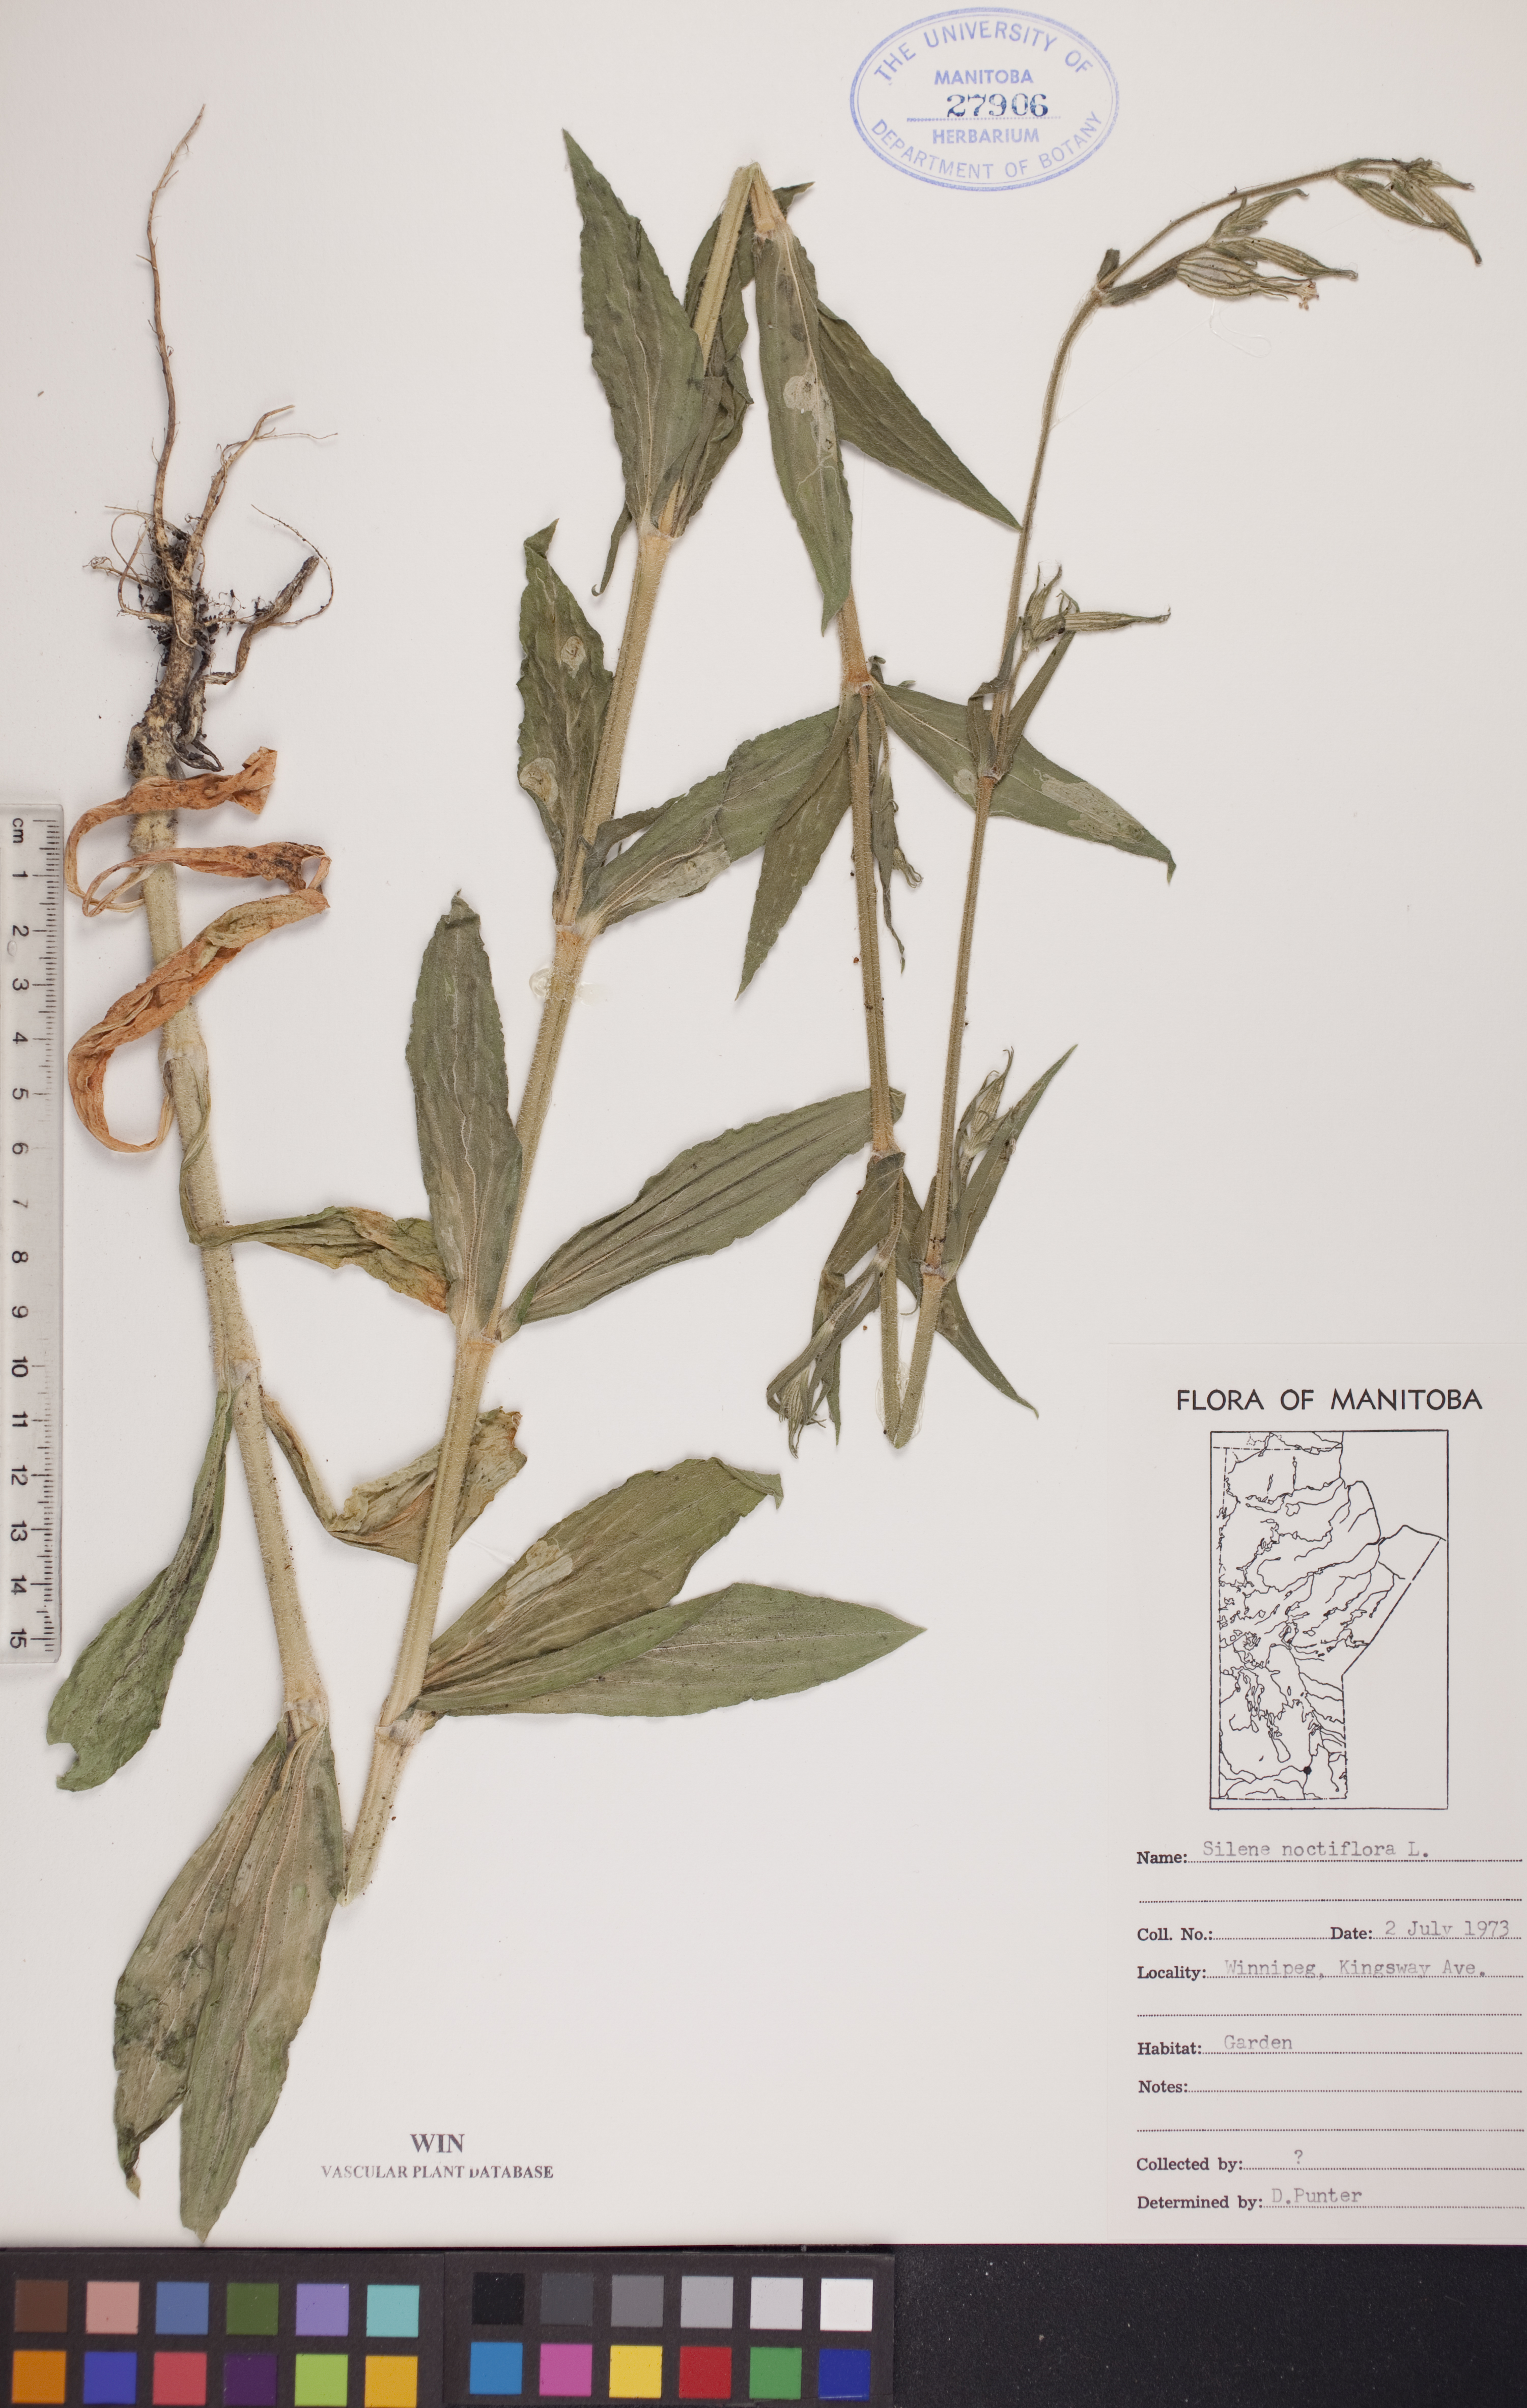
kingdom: Plantae
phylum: Tracheophyta
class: Magnoliopsida
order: Caryophyllales
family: Caryophyllaceae
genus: Silene
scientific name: Silene noctiflora
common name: Night-flowering catchfly
